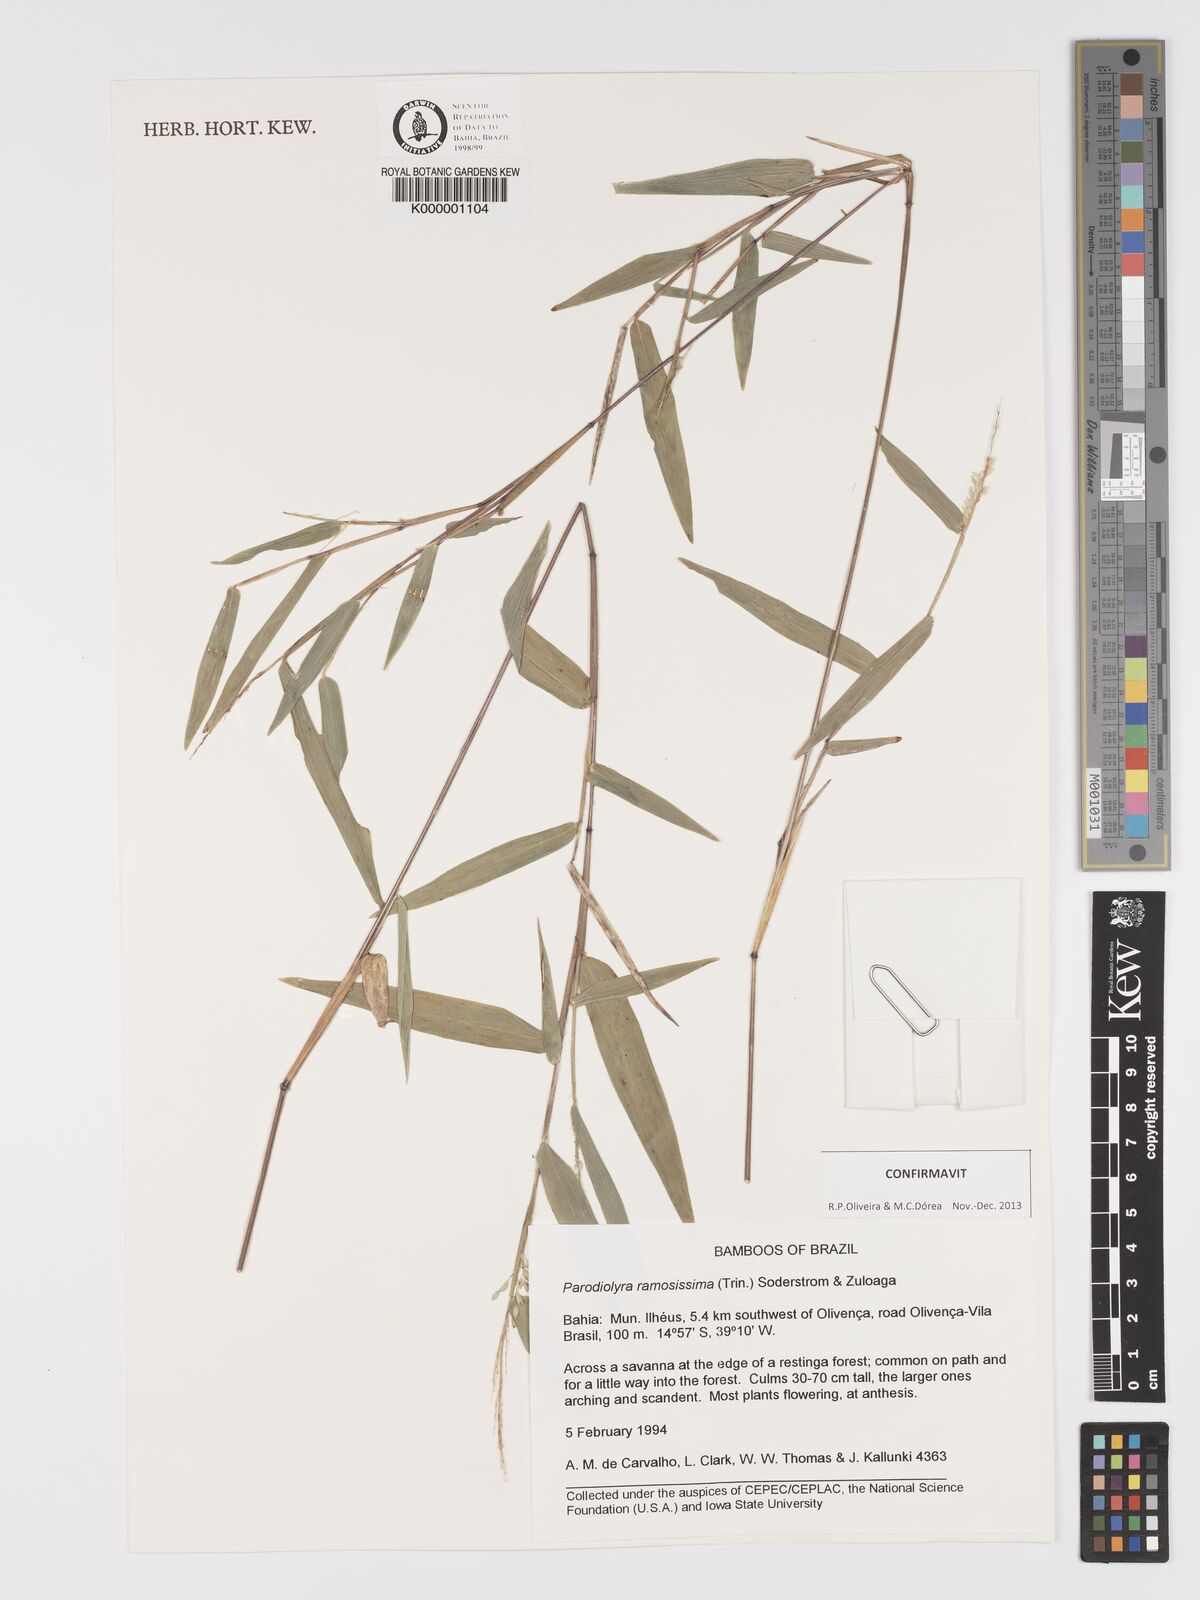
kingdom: Plantae
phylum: Tracheophyta
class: Liliopsida
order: Poales
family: Poaceae
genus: Parodiolyra
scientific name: Parodiolyra ramosissima
